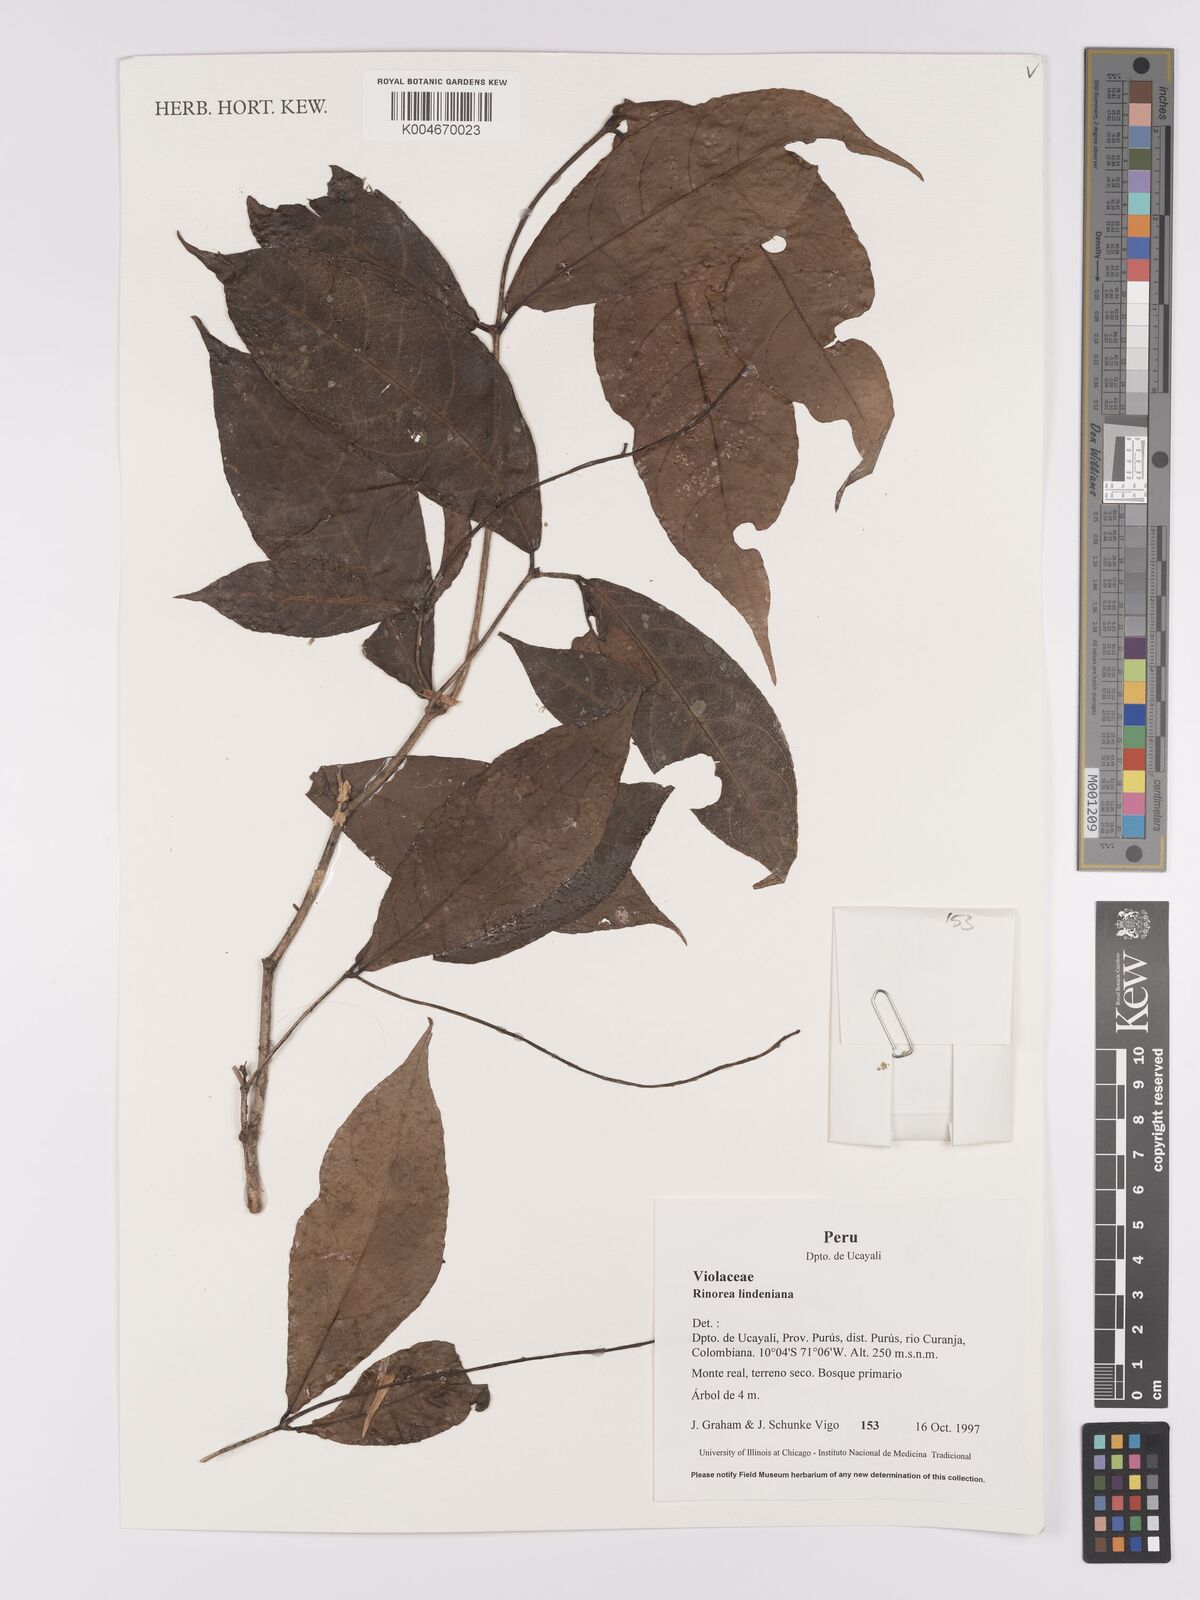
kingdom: Plantae
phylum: Tracheophyta
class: Magnoliopsida
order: Malpighiales
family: Violaceae
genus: Rinorea
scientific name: Rinorea lindeniana
